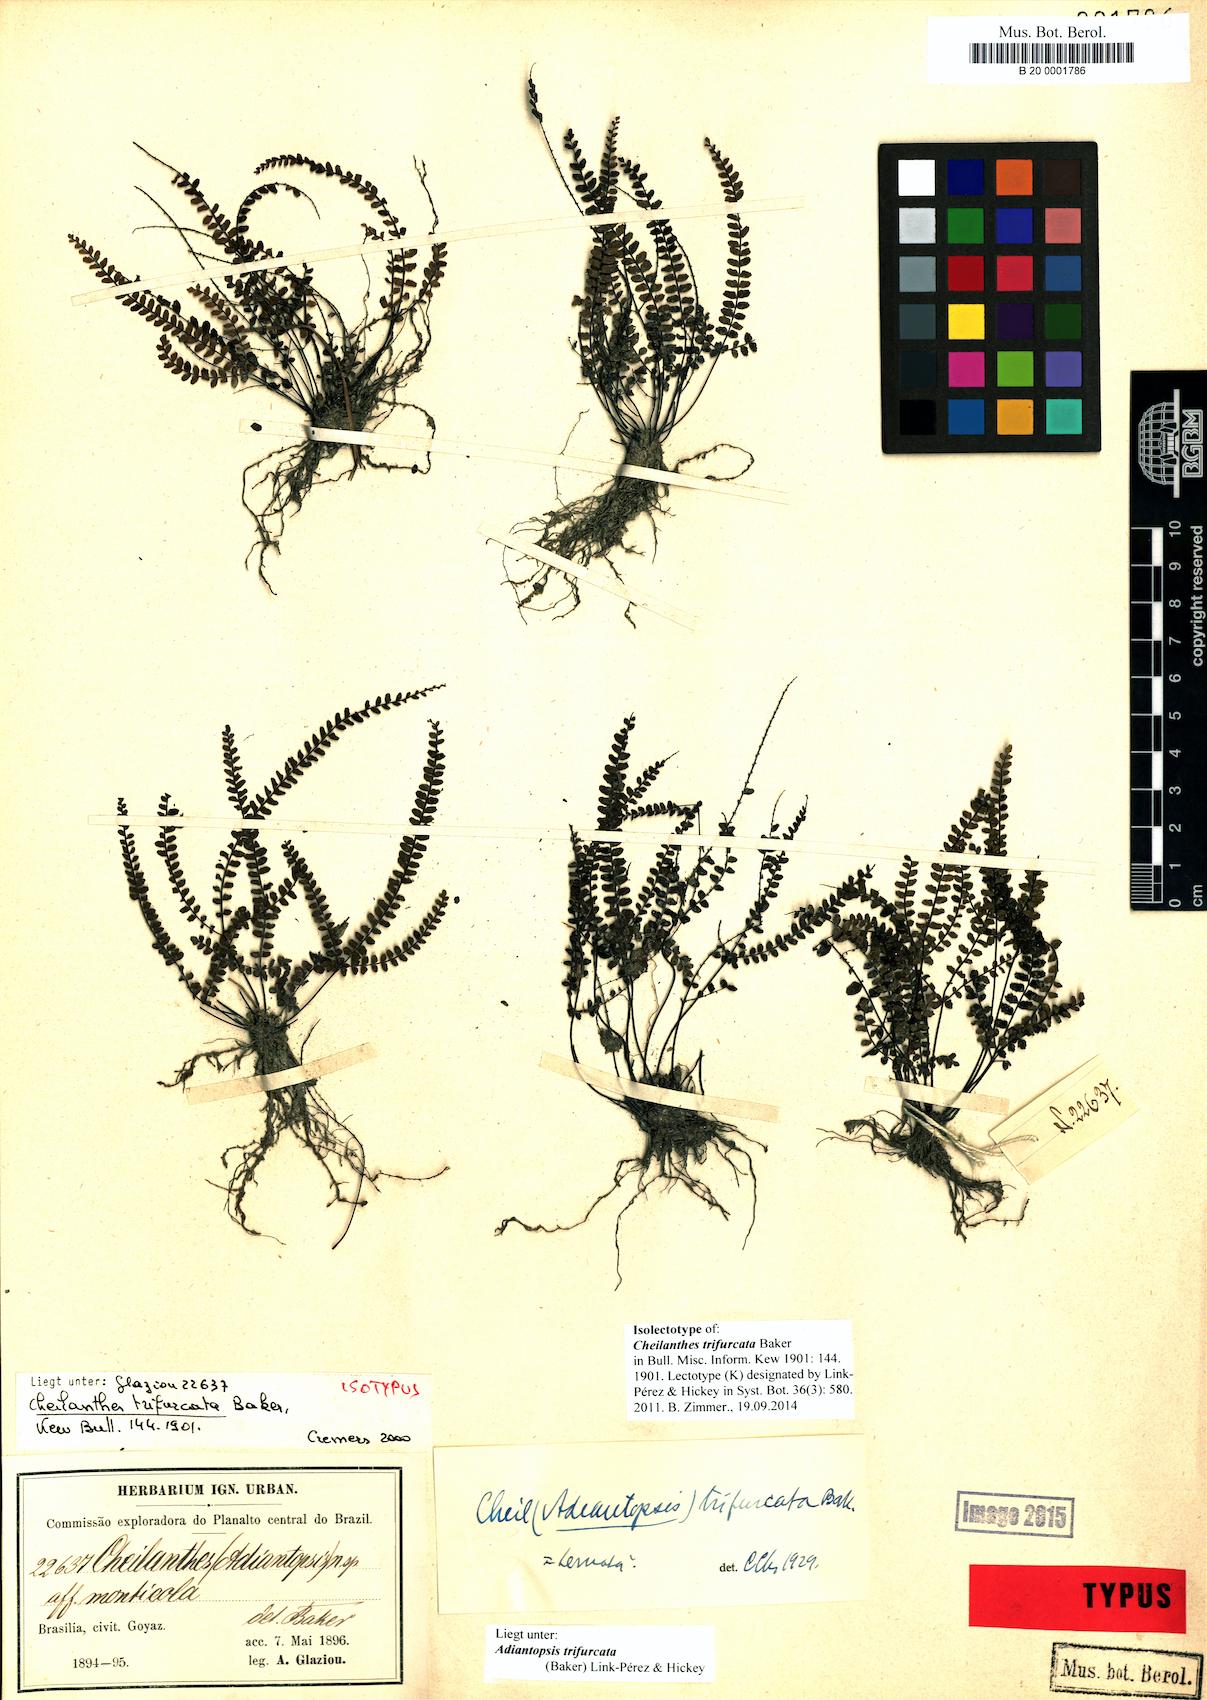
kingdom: Plantae
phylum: Tracheophyta
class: Polypodiopsida
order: Polypodiales
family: Pteridaceae
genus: Adiantopsis
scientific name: Adiantopsis trifurcata
